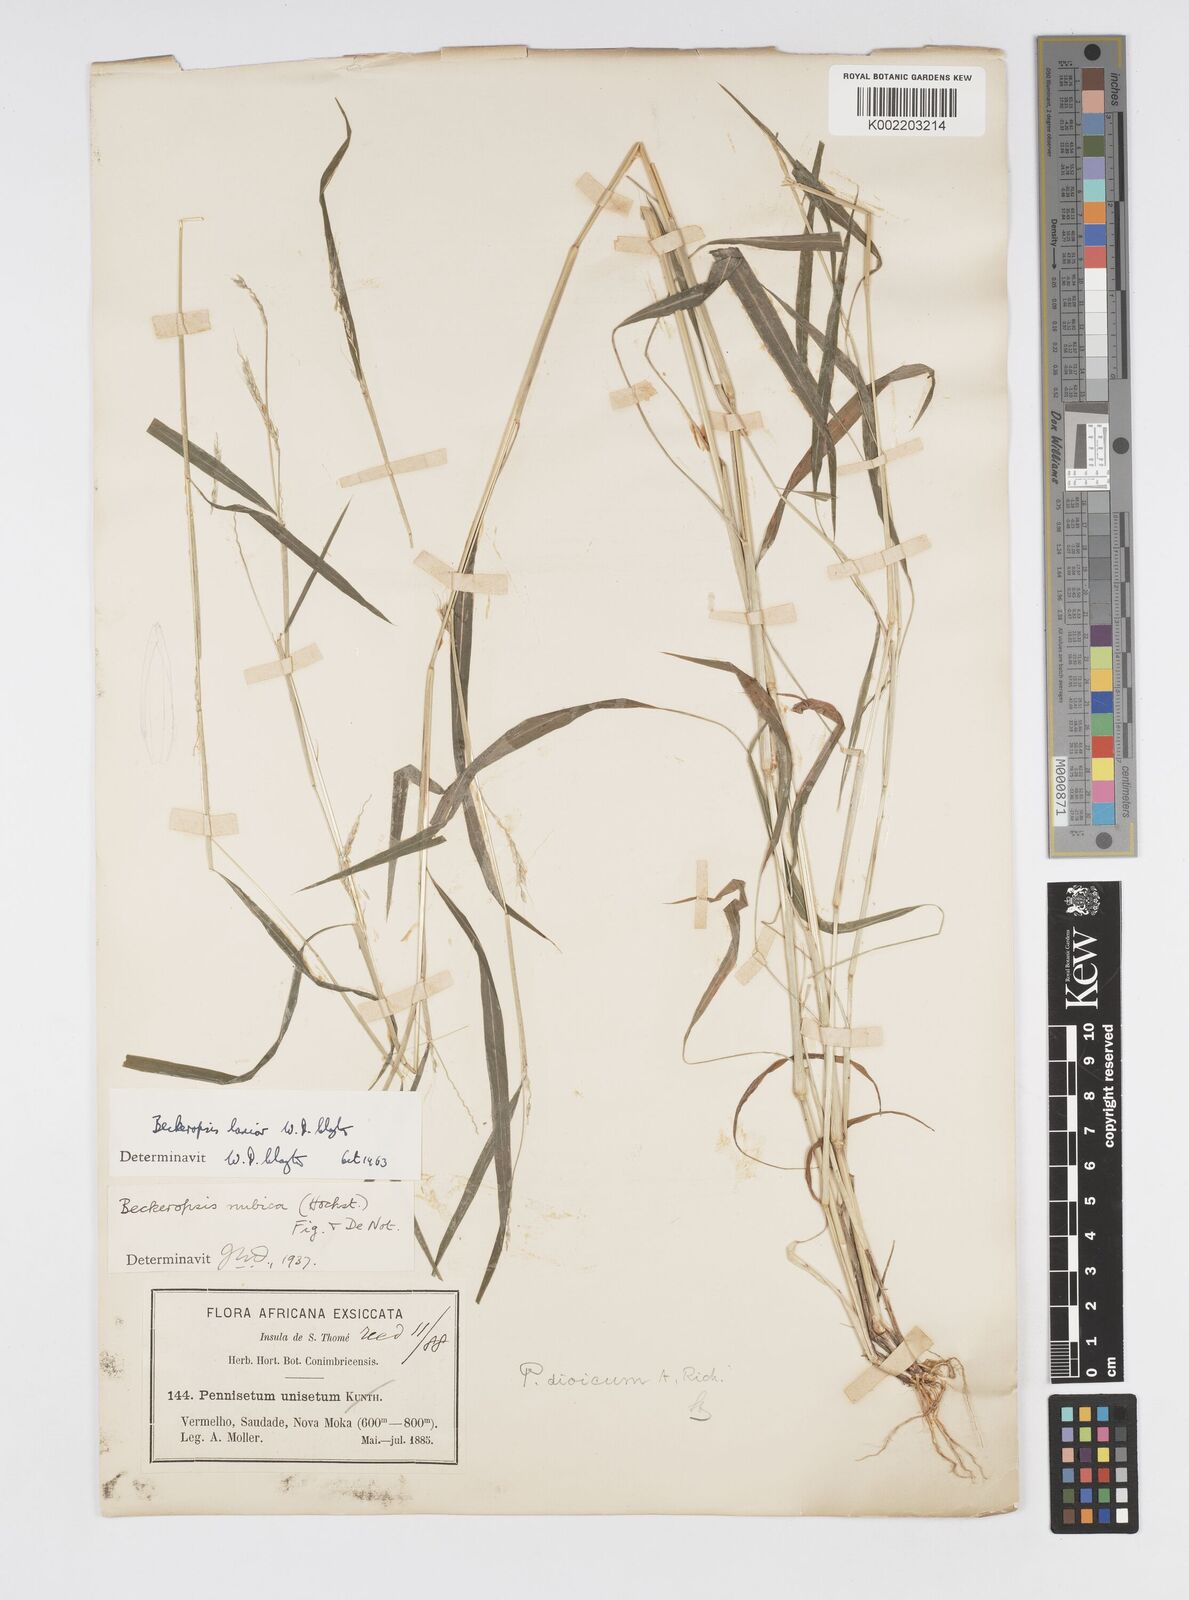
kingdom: Plantae
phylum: Tracheophyta
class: Liliopsida
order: Poales
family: Poaceae
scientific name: Poaceae
